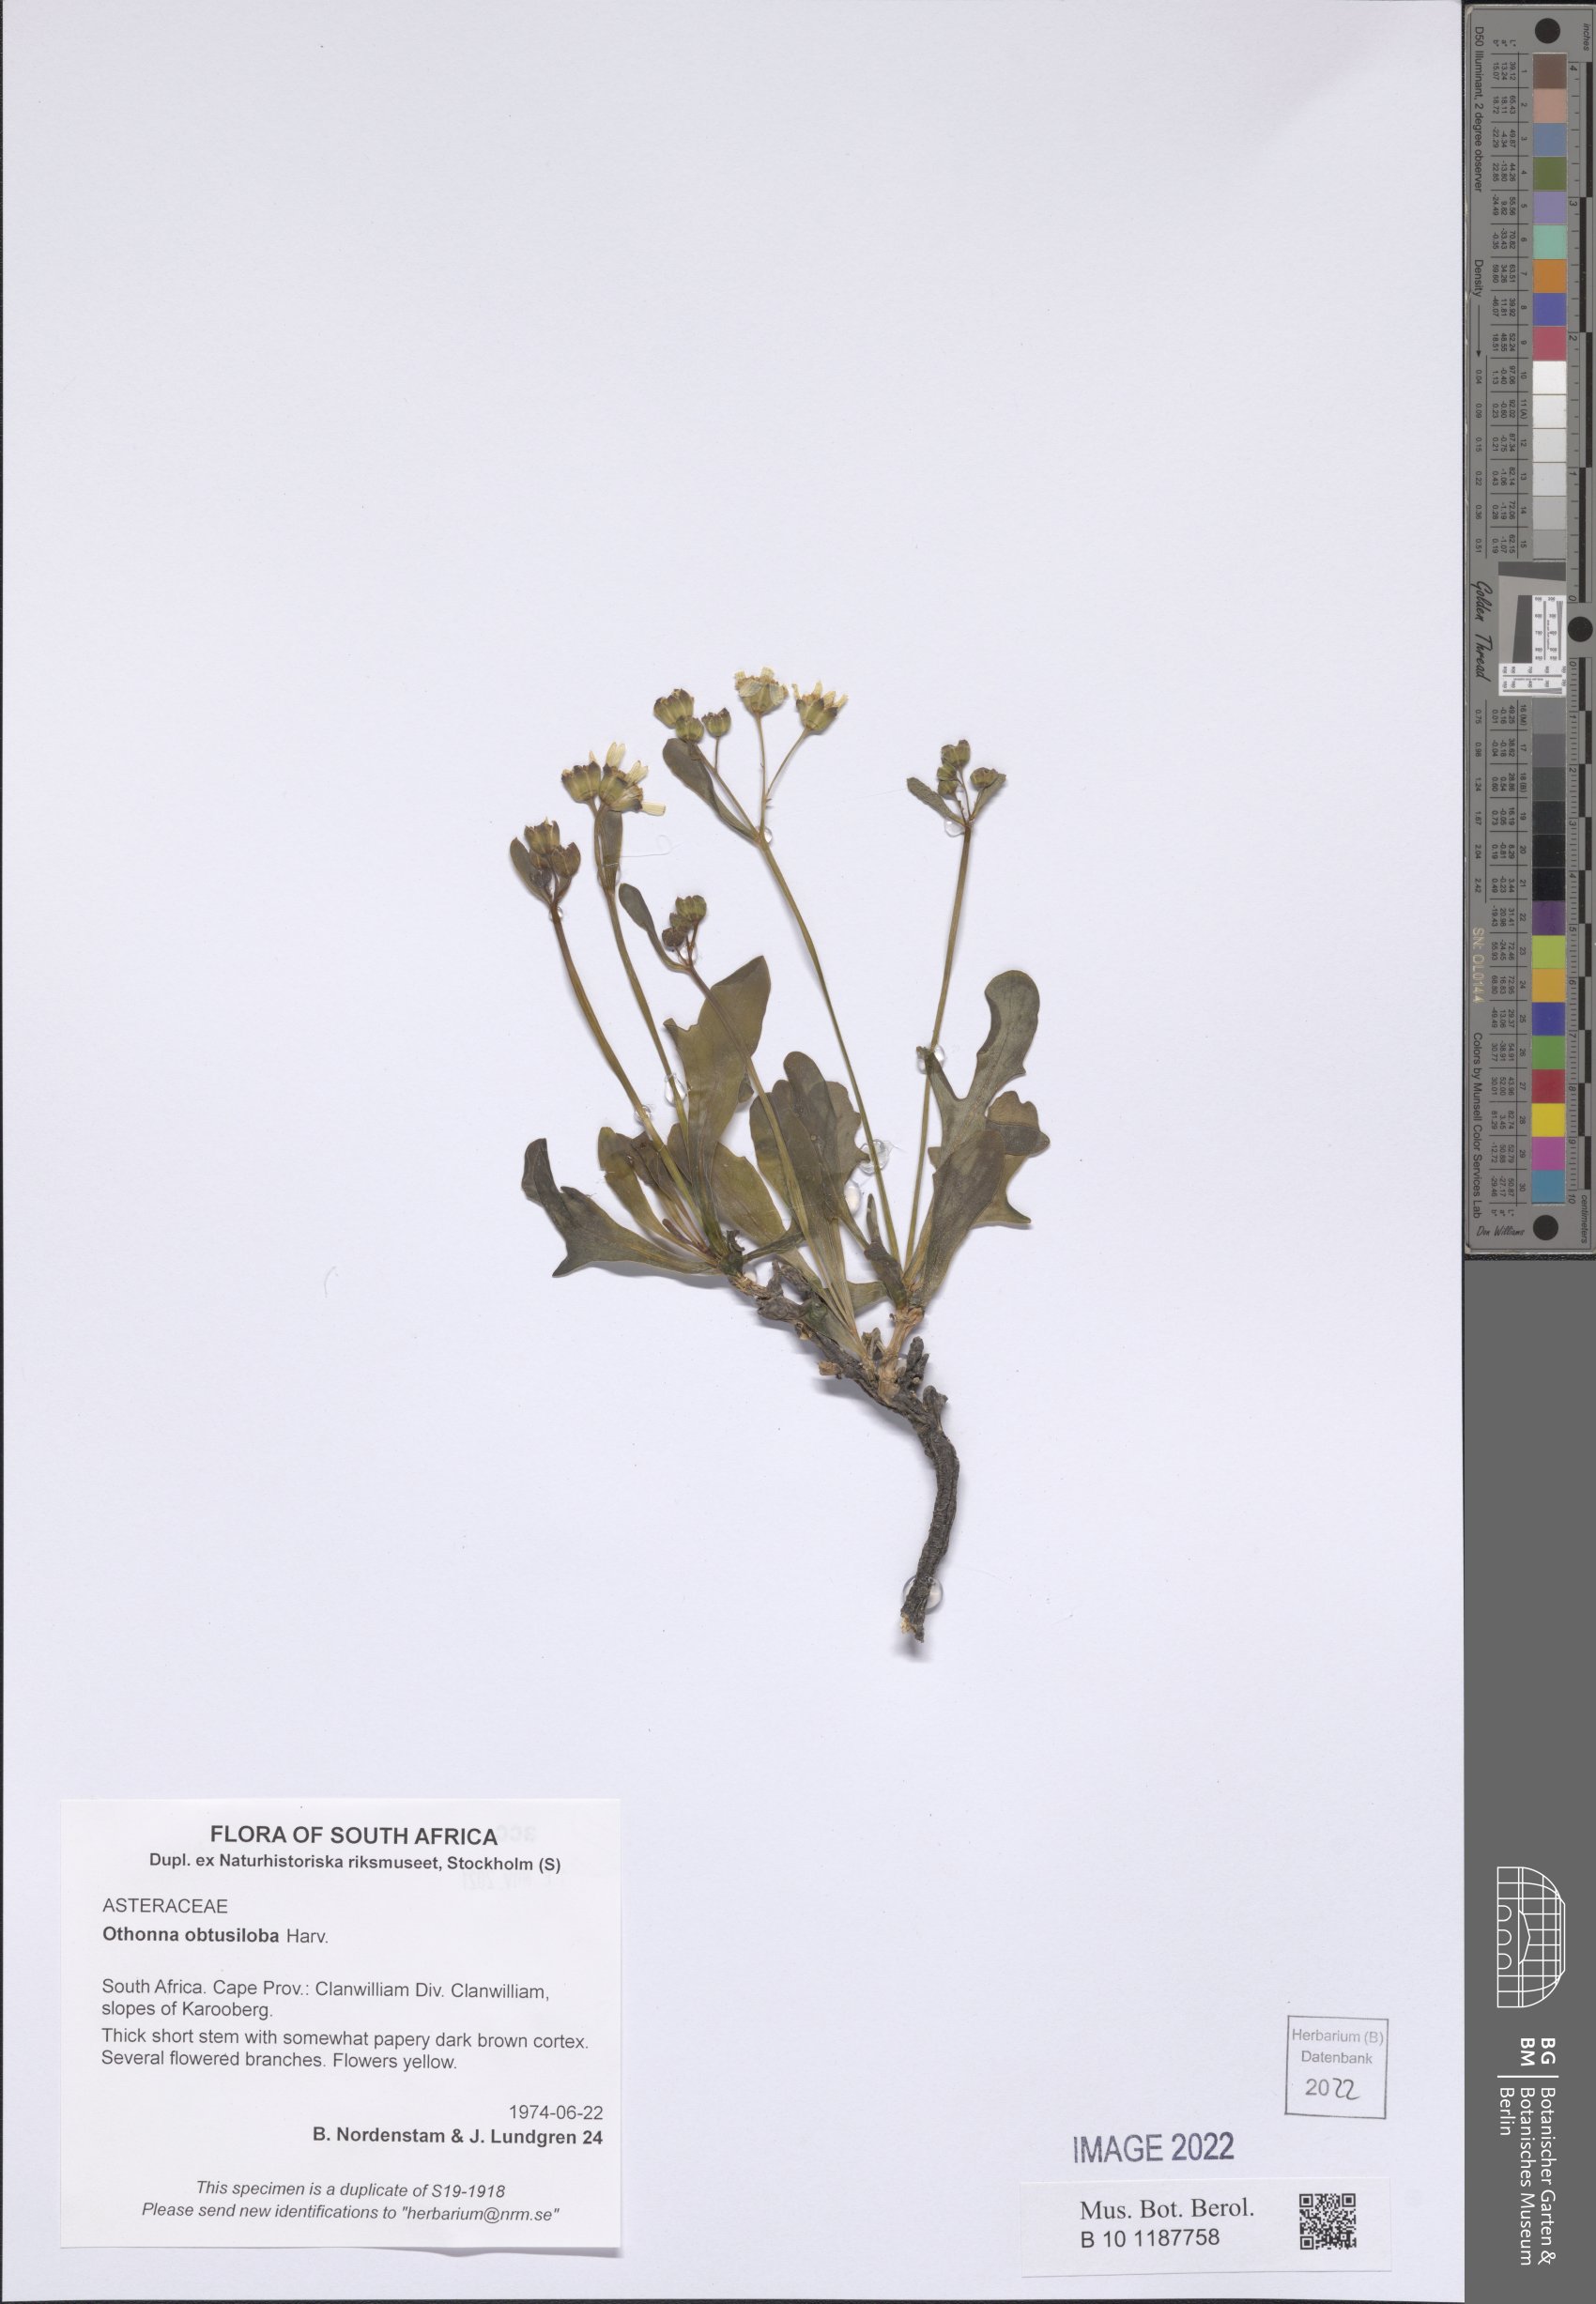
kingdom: Plantae
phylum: Tracheophyta
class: Magnoliopsida
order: Asterales
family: Asteraceae
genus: Othonna
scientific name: Othonna obtusiloba
